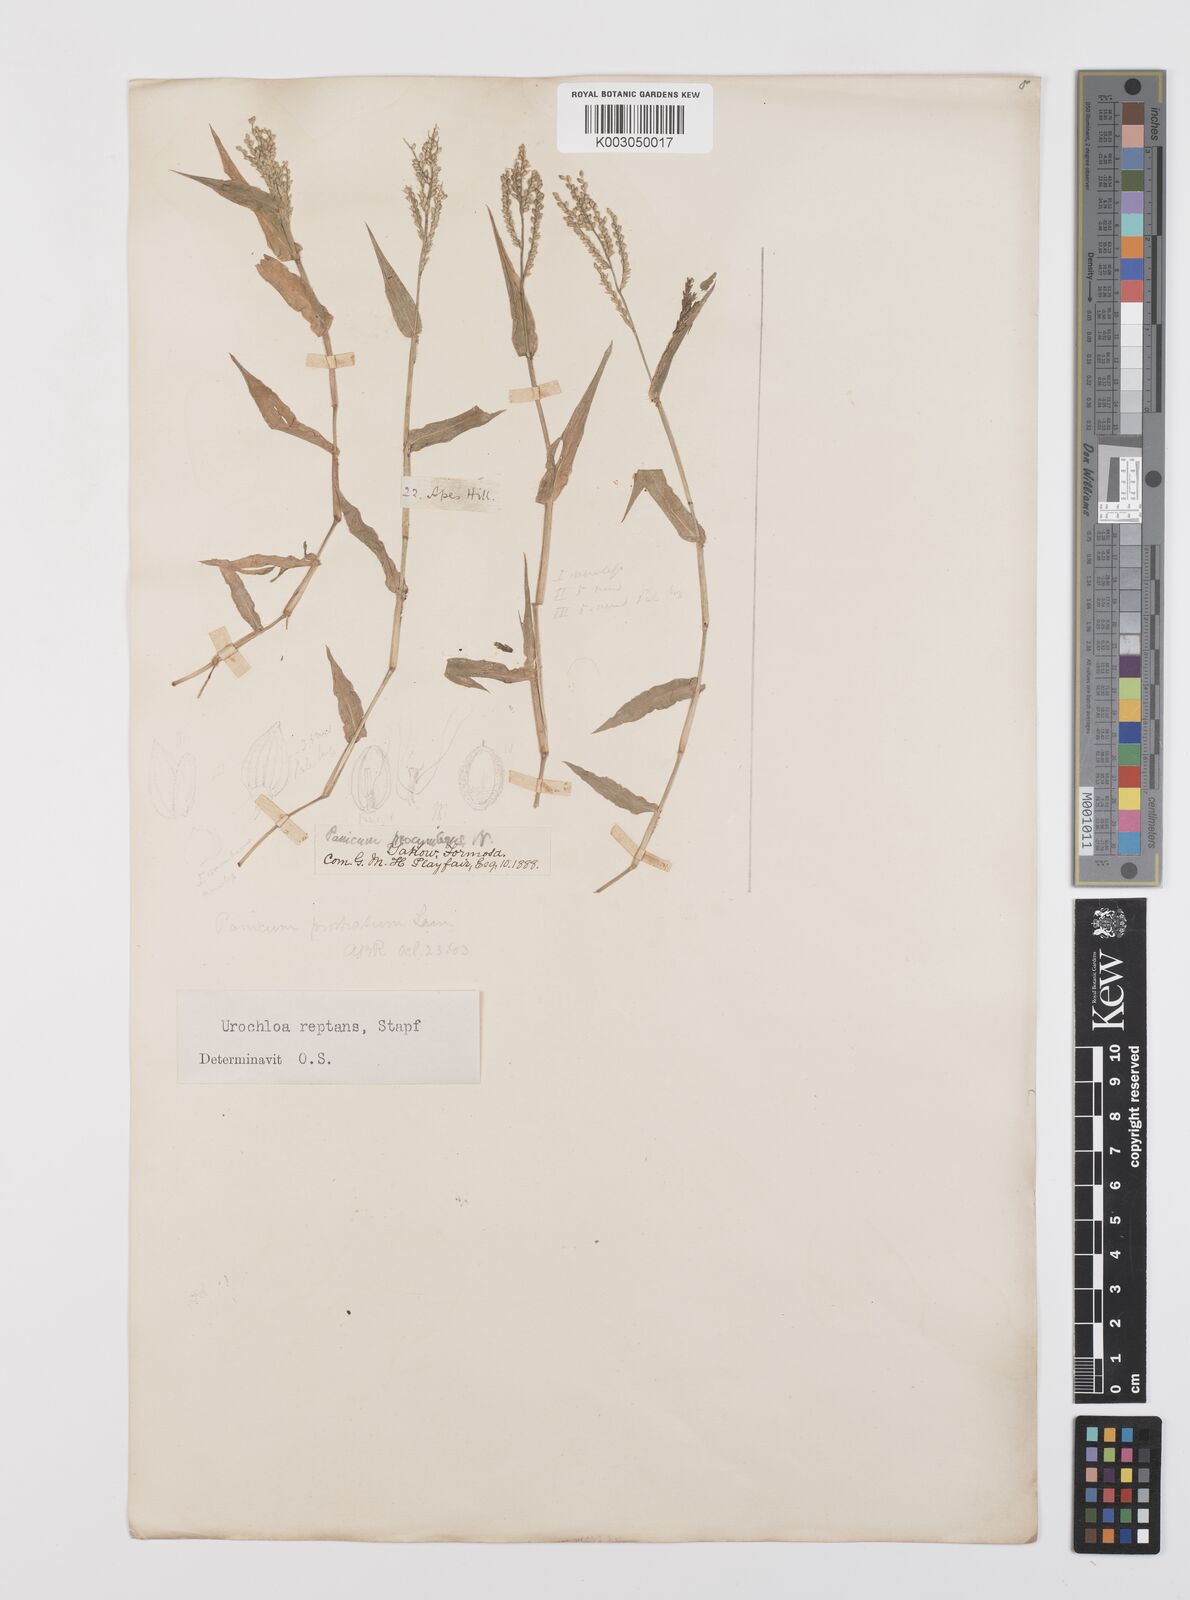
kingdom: Plantae
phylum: Tracheophyta
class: Liliopsida
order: Poales
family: Poaceae
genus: Urochloa
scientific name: Urochloa reptans
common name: Sprawling signalgrass
